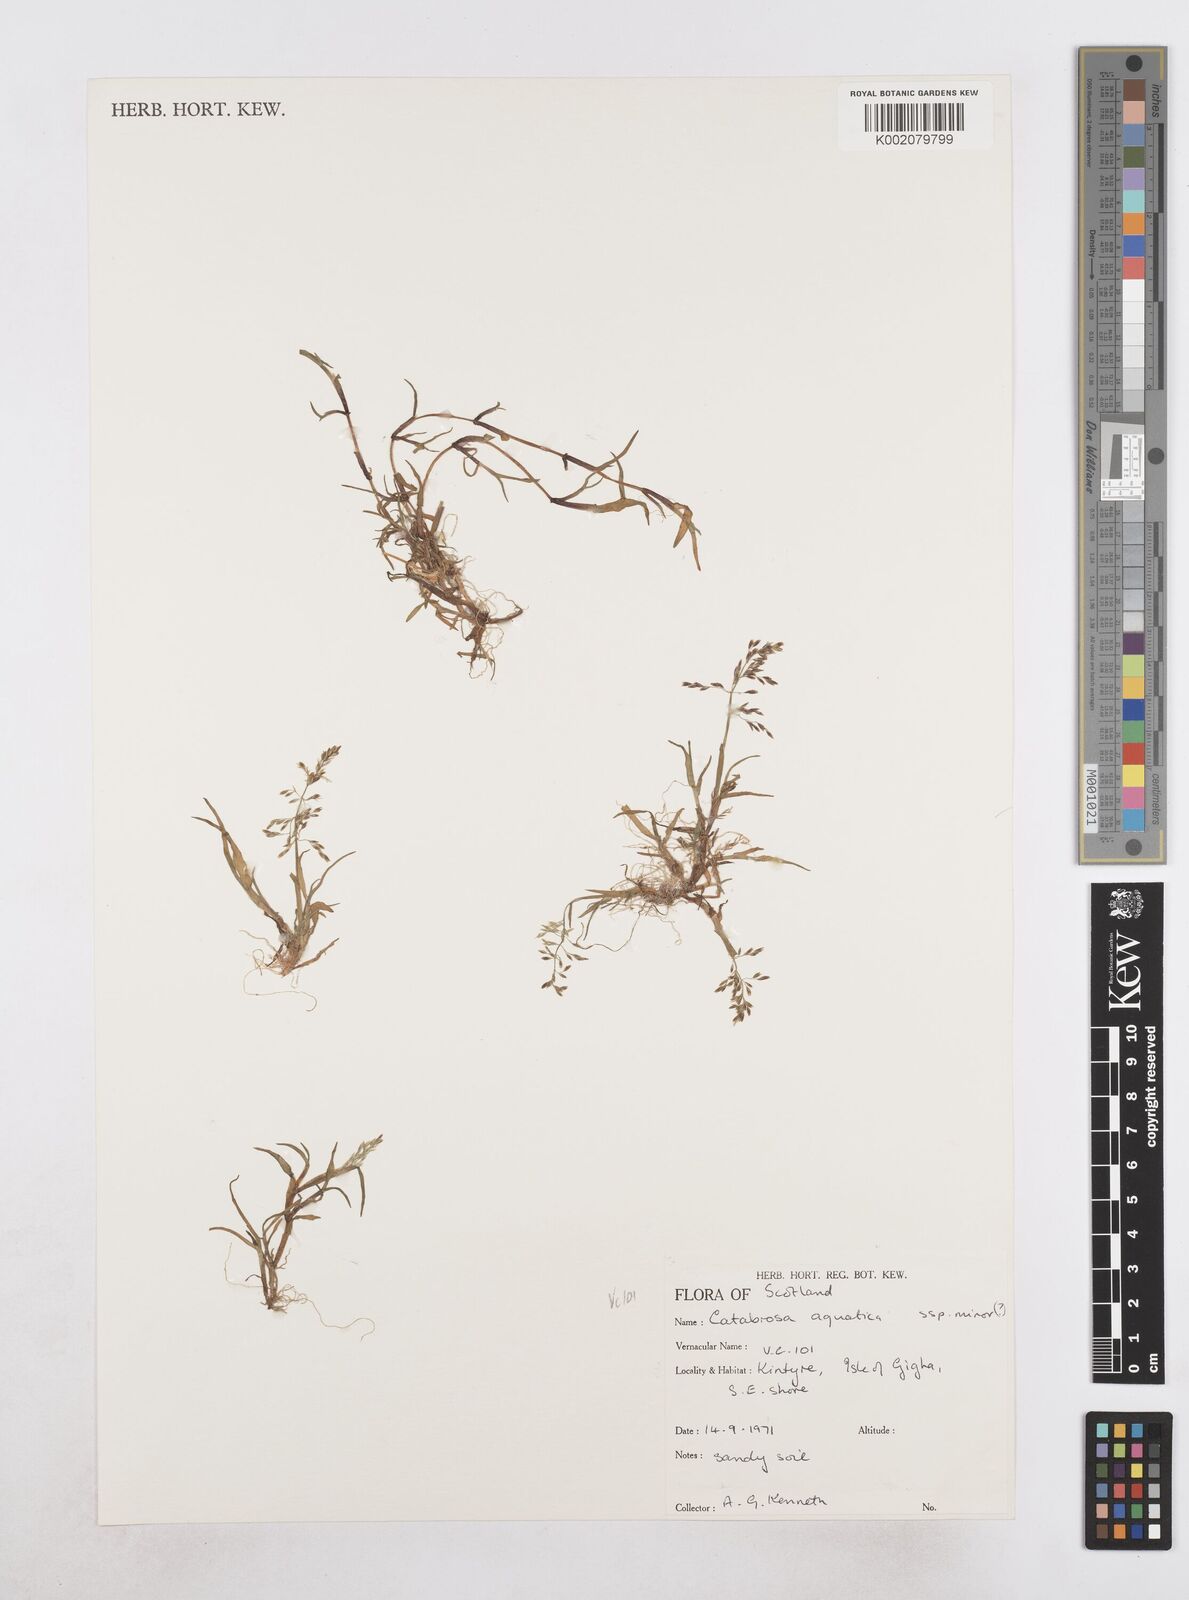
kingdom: Plantae
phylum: Tracheophyta
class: Liliopsida
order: Poales
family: Poaceae
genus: Catabrosa
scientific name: Catabrosa aquatica
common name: Whorl-grass
